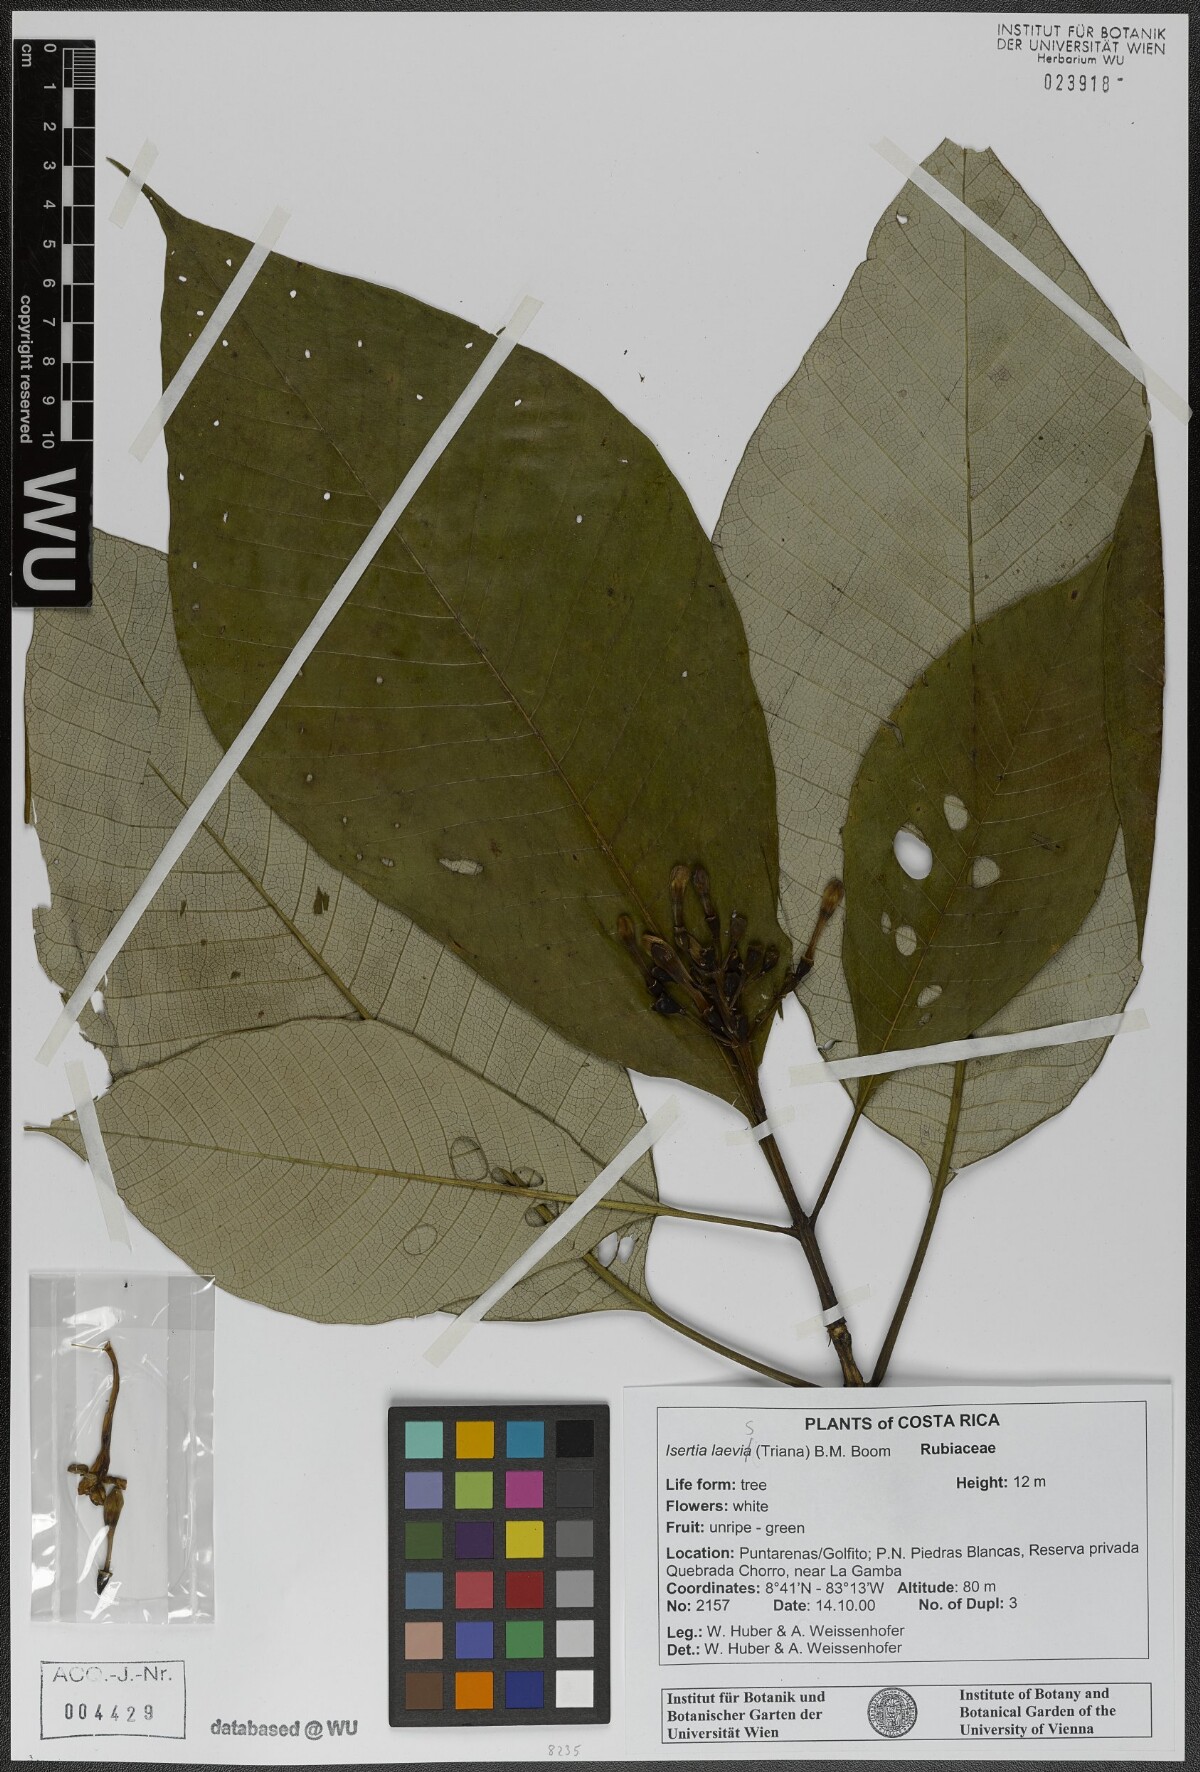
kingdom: Plantae
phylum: Tracheophyta
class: Magnoliopsida
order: Gentianales
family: Rubiaceae
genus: Isertia
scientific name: Isertia laevis
